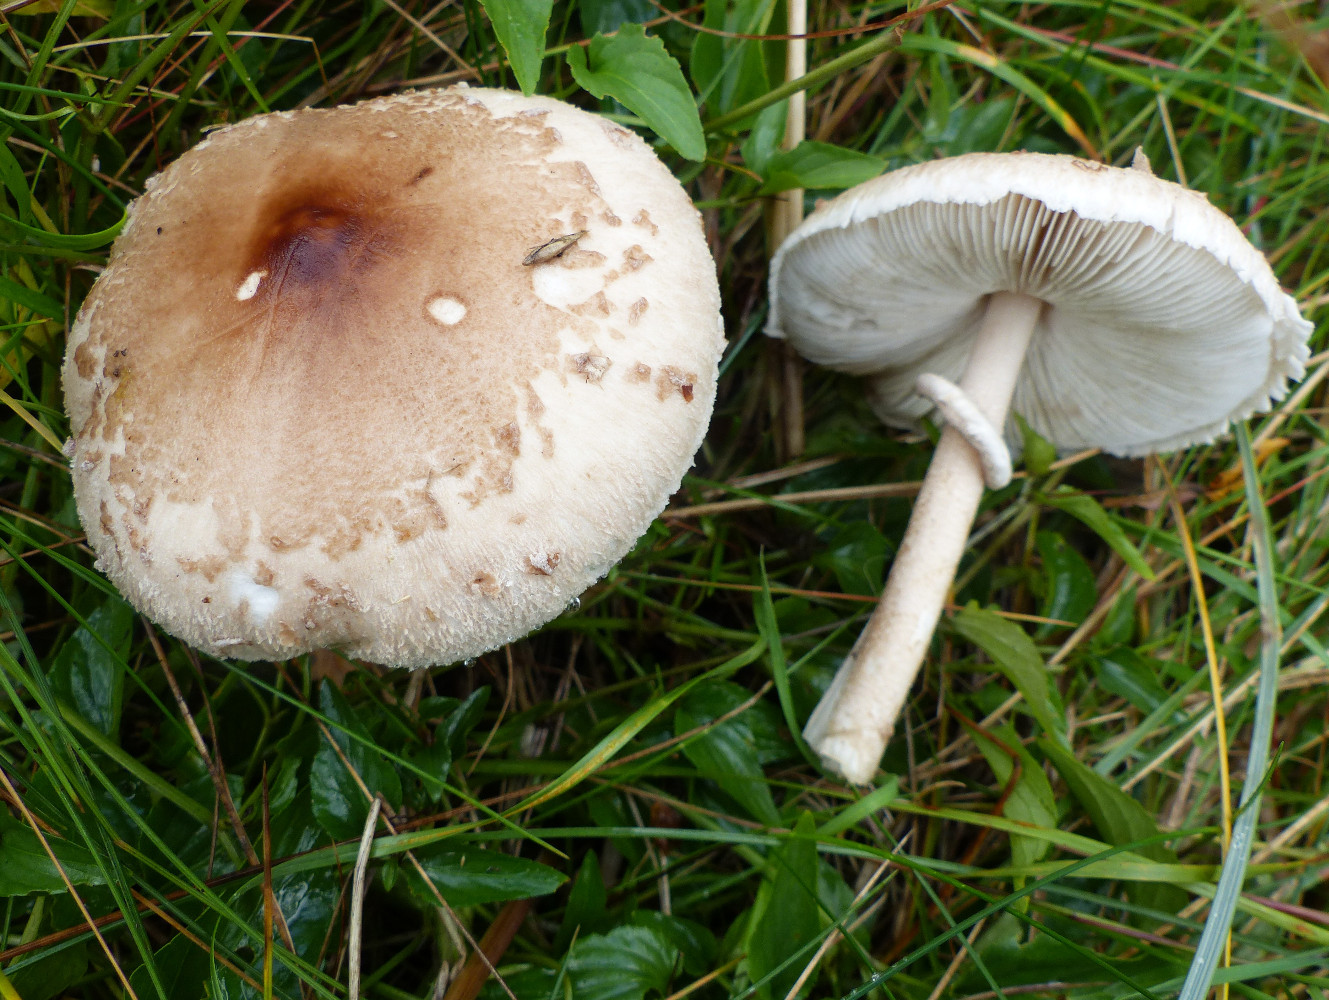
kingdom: Fungi
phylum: Basidiomycota
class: Agaricomycetes
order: Agaricales
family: Agaricaceae
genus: Macrolepiota
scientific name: Macrolepiota mastoidea
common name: puklet kæmpeparasolhat
